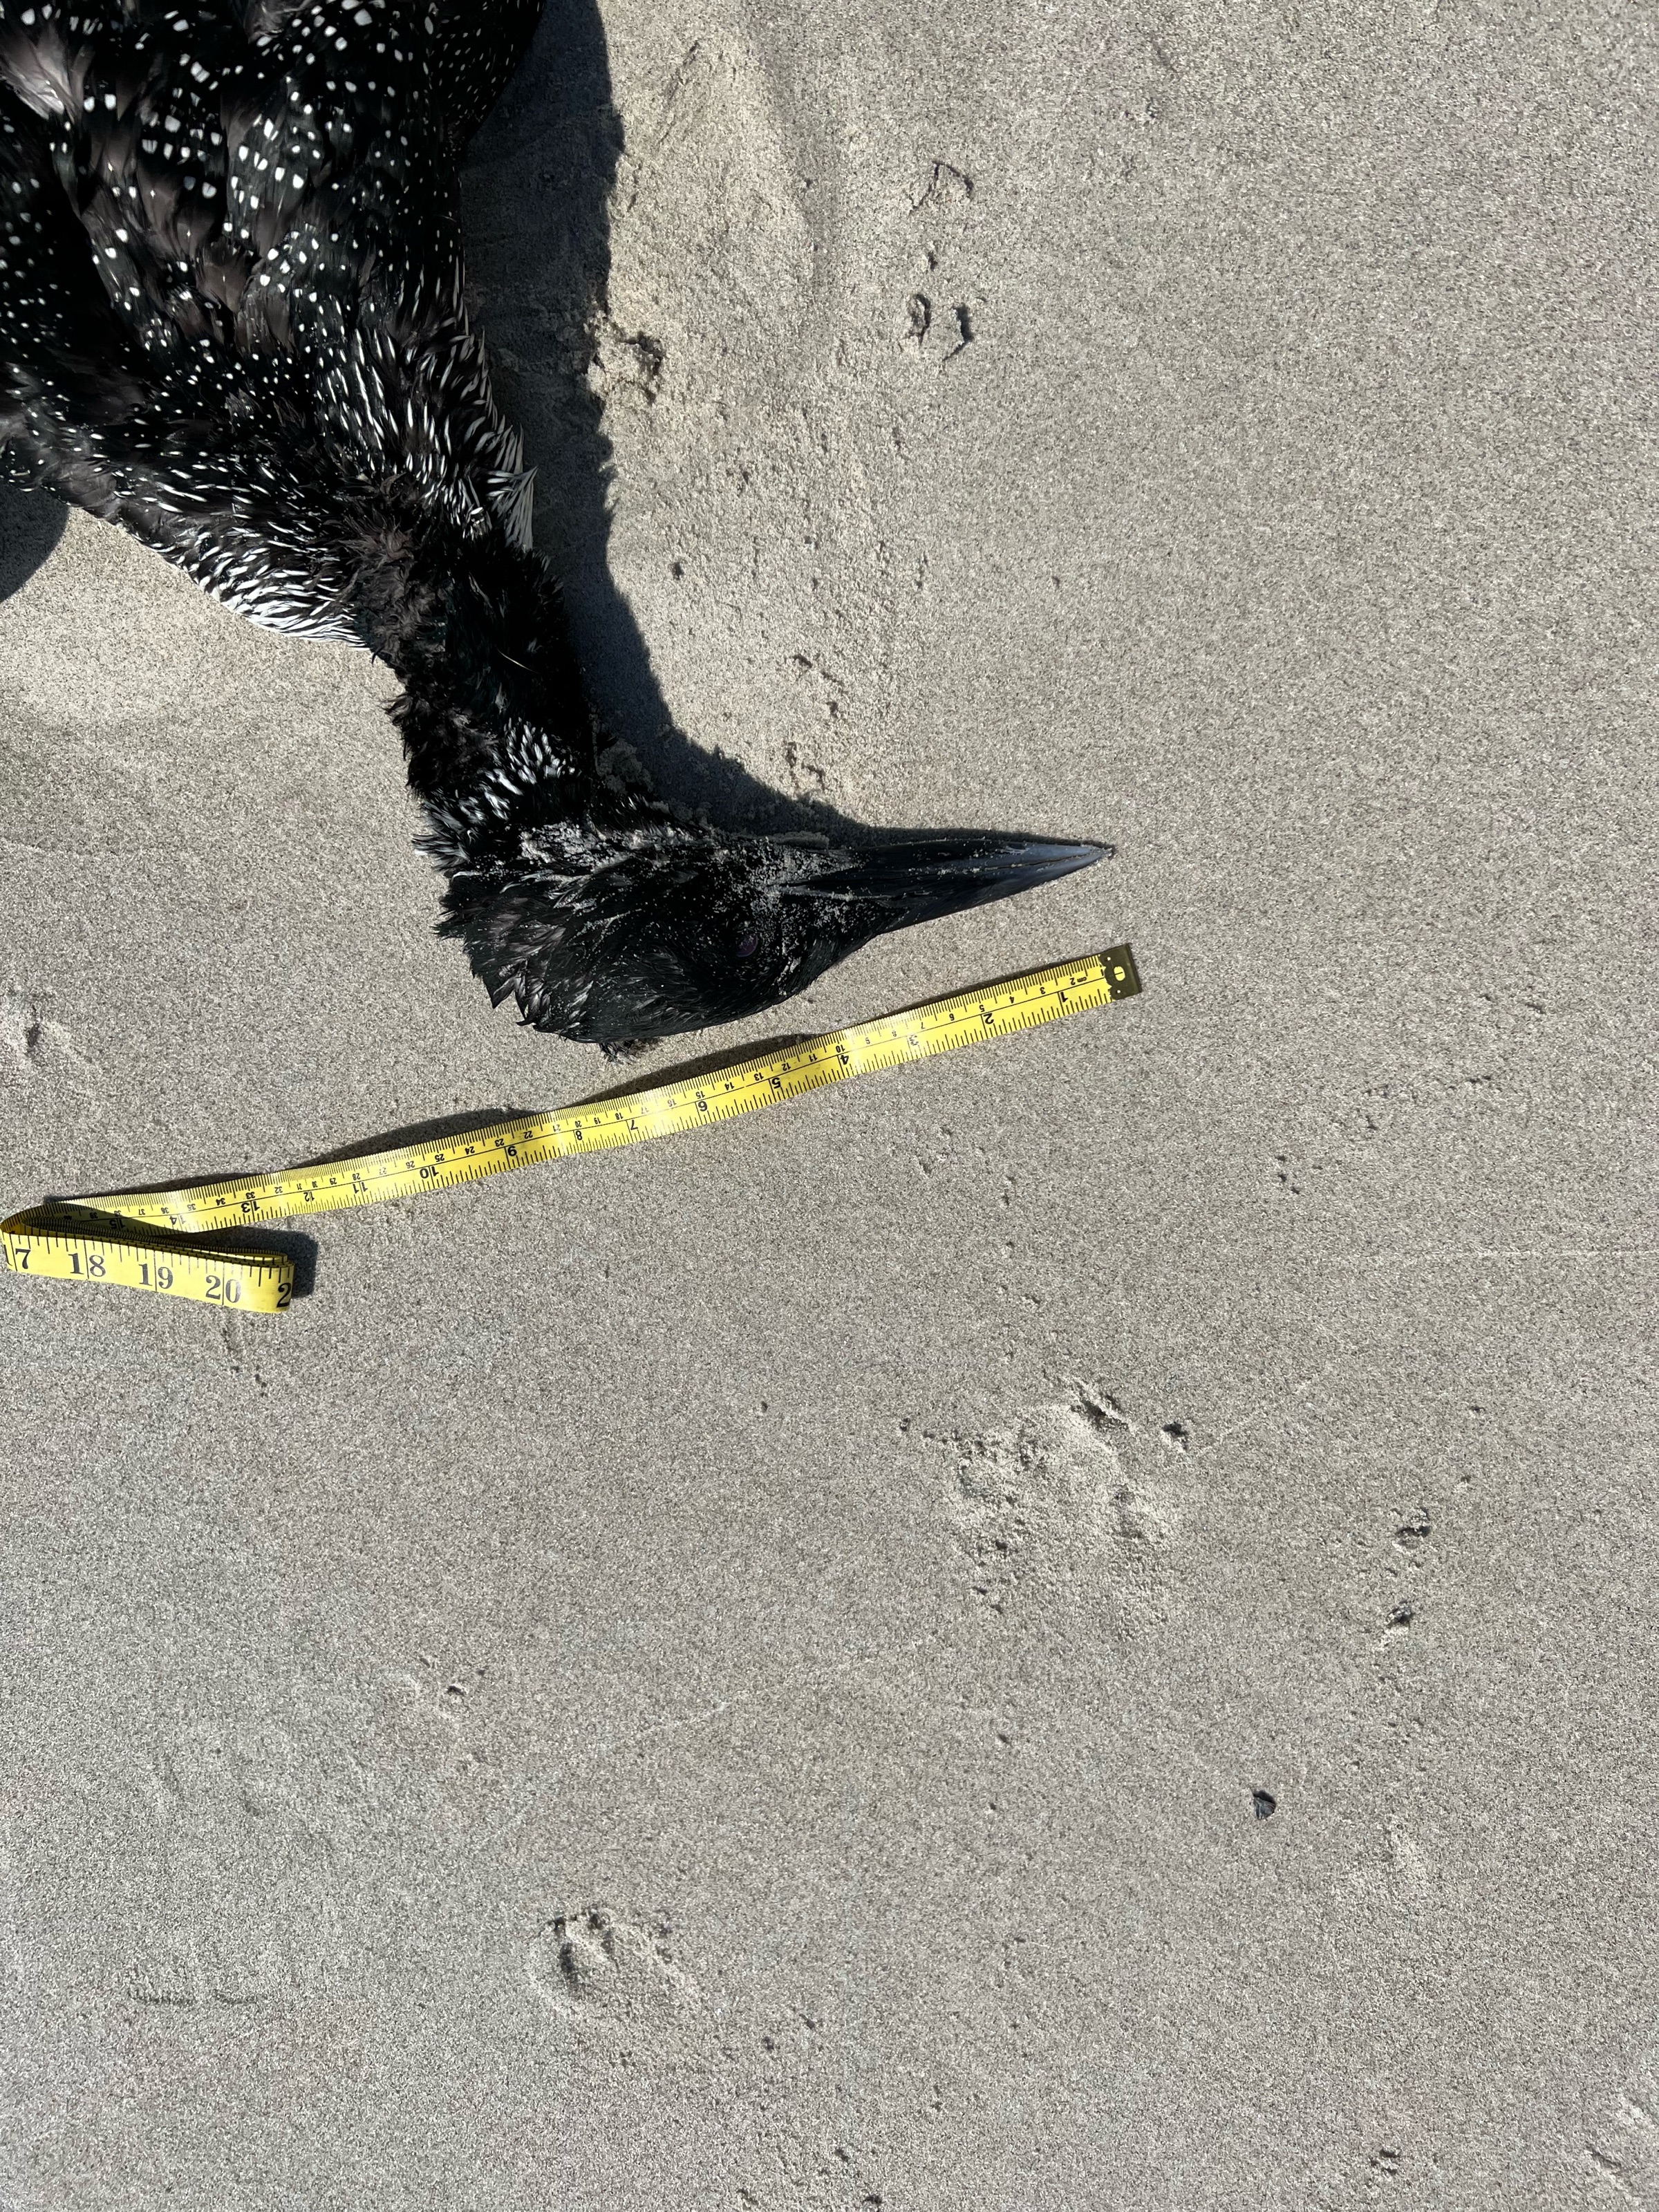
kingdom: Animalia
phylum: Chordata
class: Aves
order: Gaviiformes
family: Gaviidae
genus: Gavia
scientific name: Gavia immer
